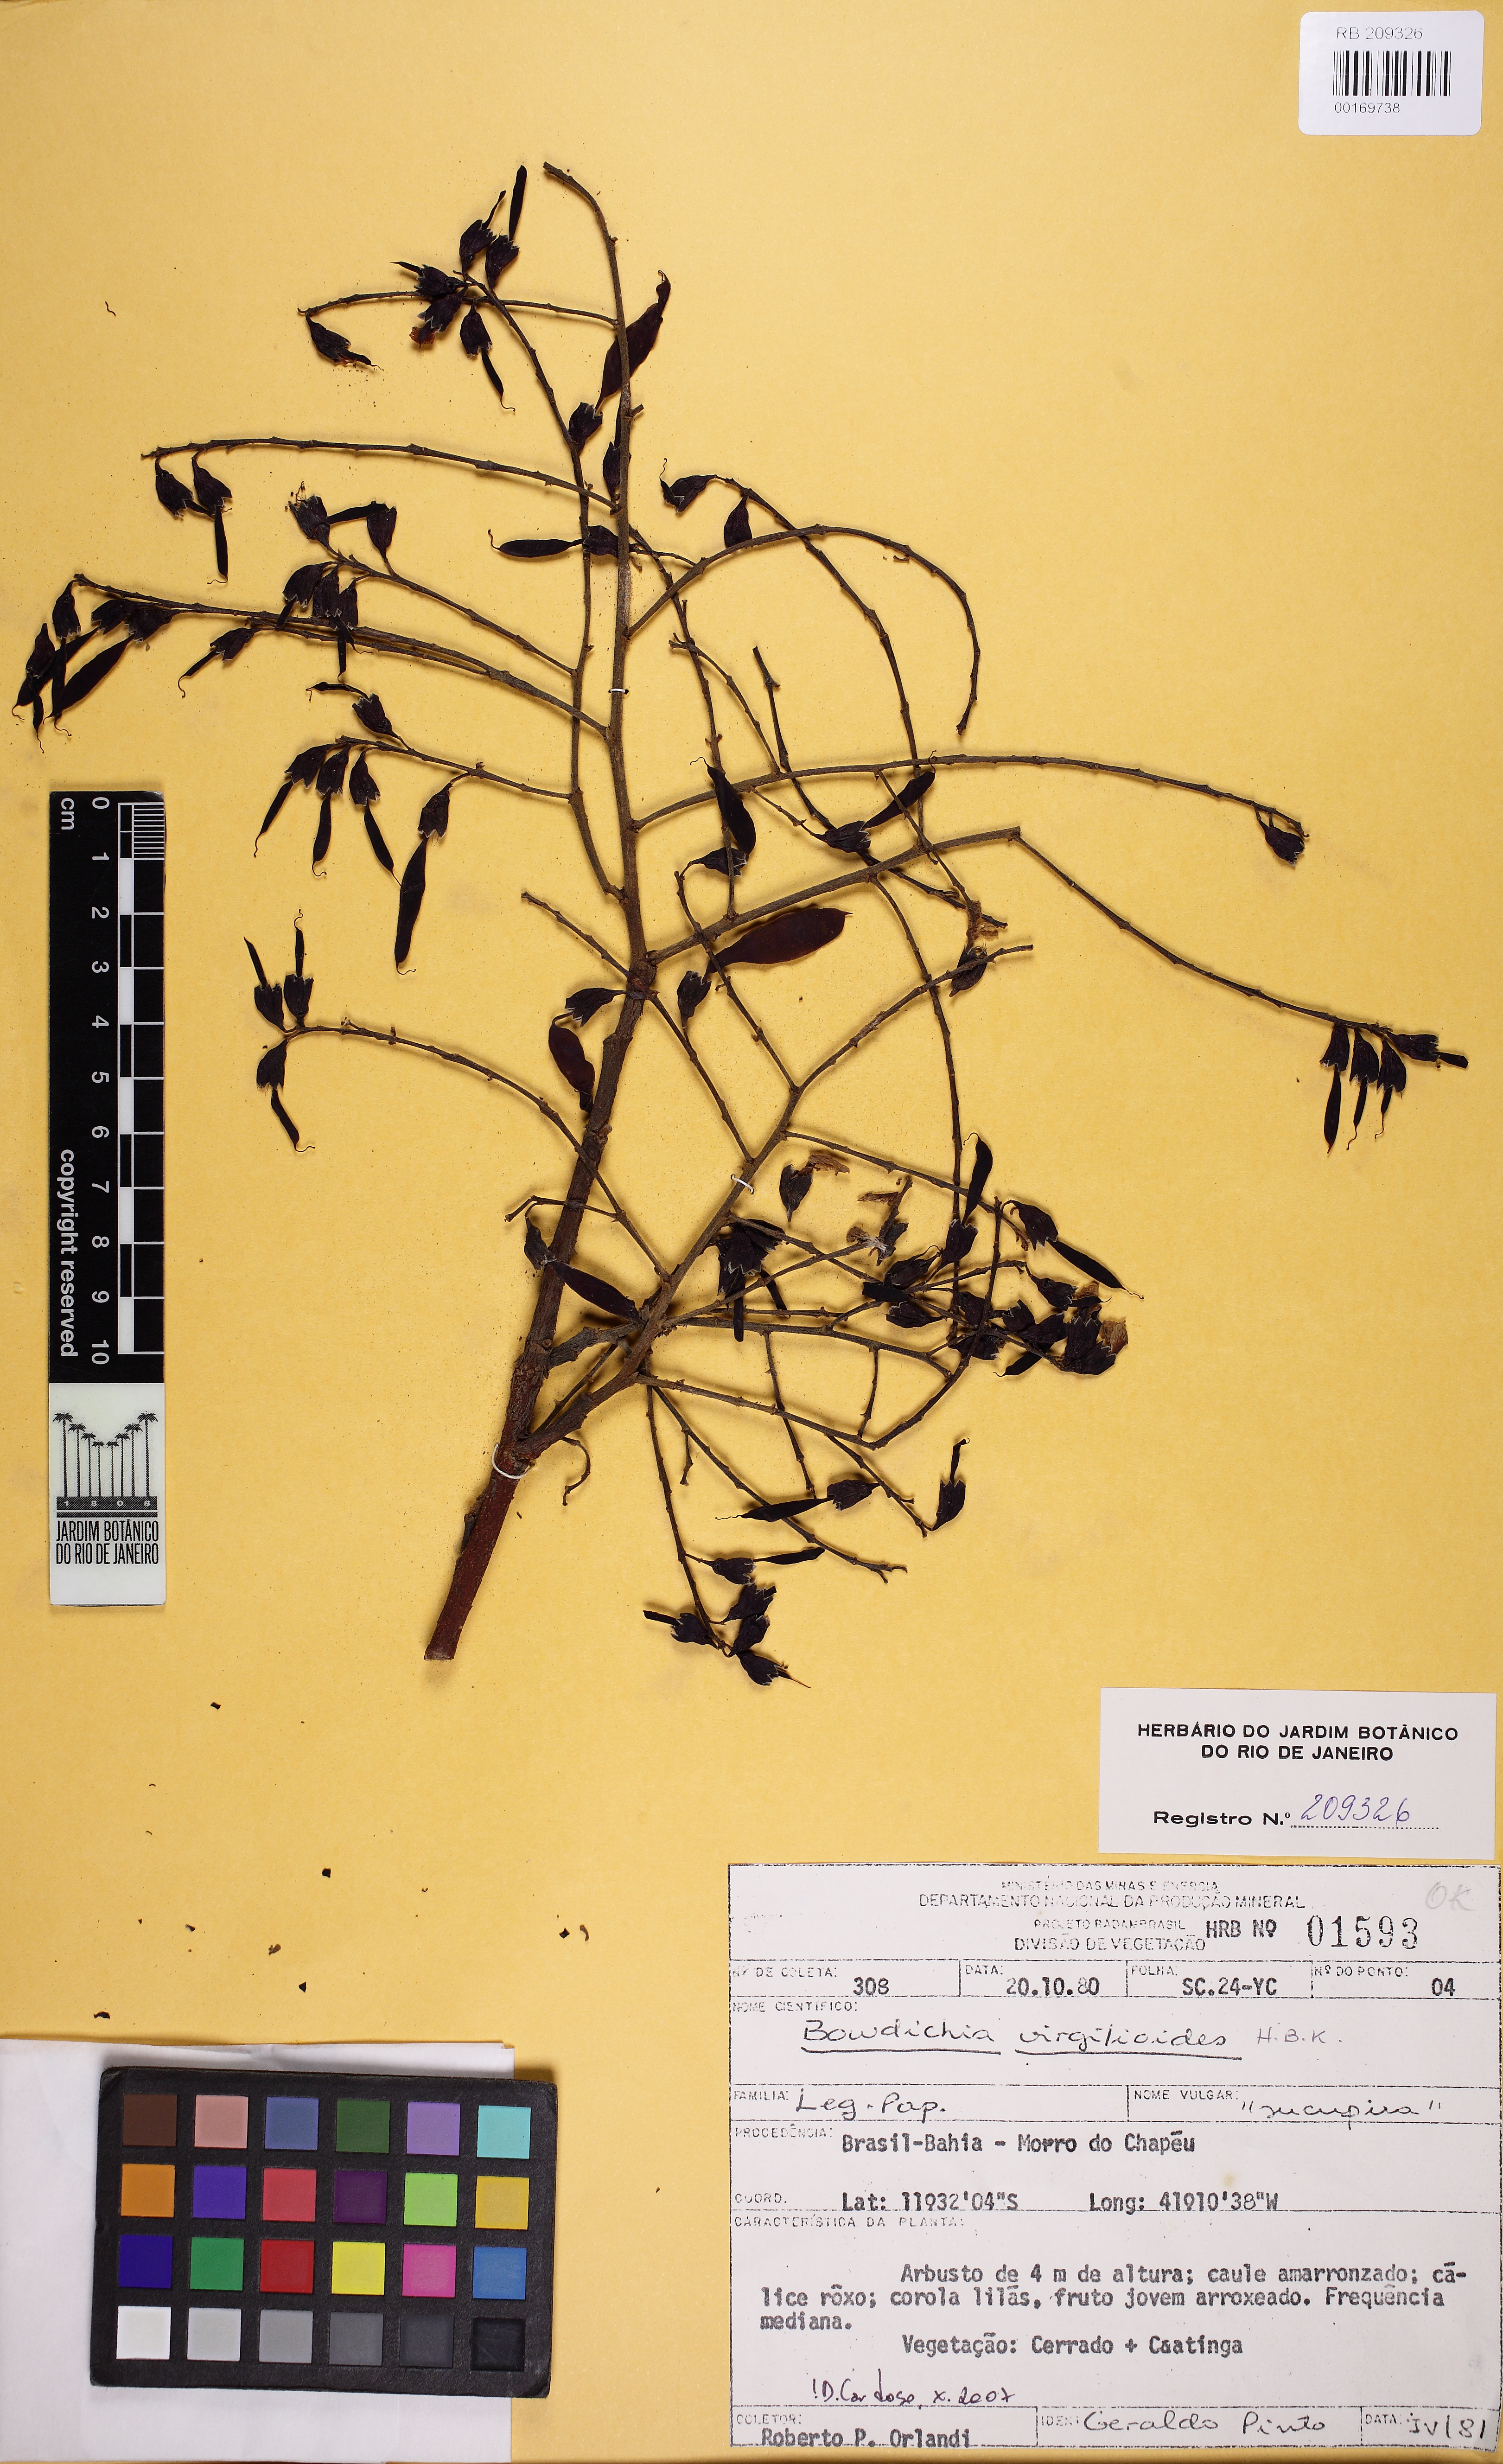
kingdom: Plantae
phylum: Tracheophyta
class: Magnoliopsida
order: Fabales
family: Fabaceae
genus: Bowdichia
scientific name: Bowdichia virgilioides
